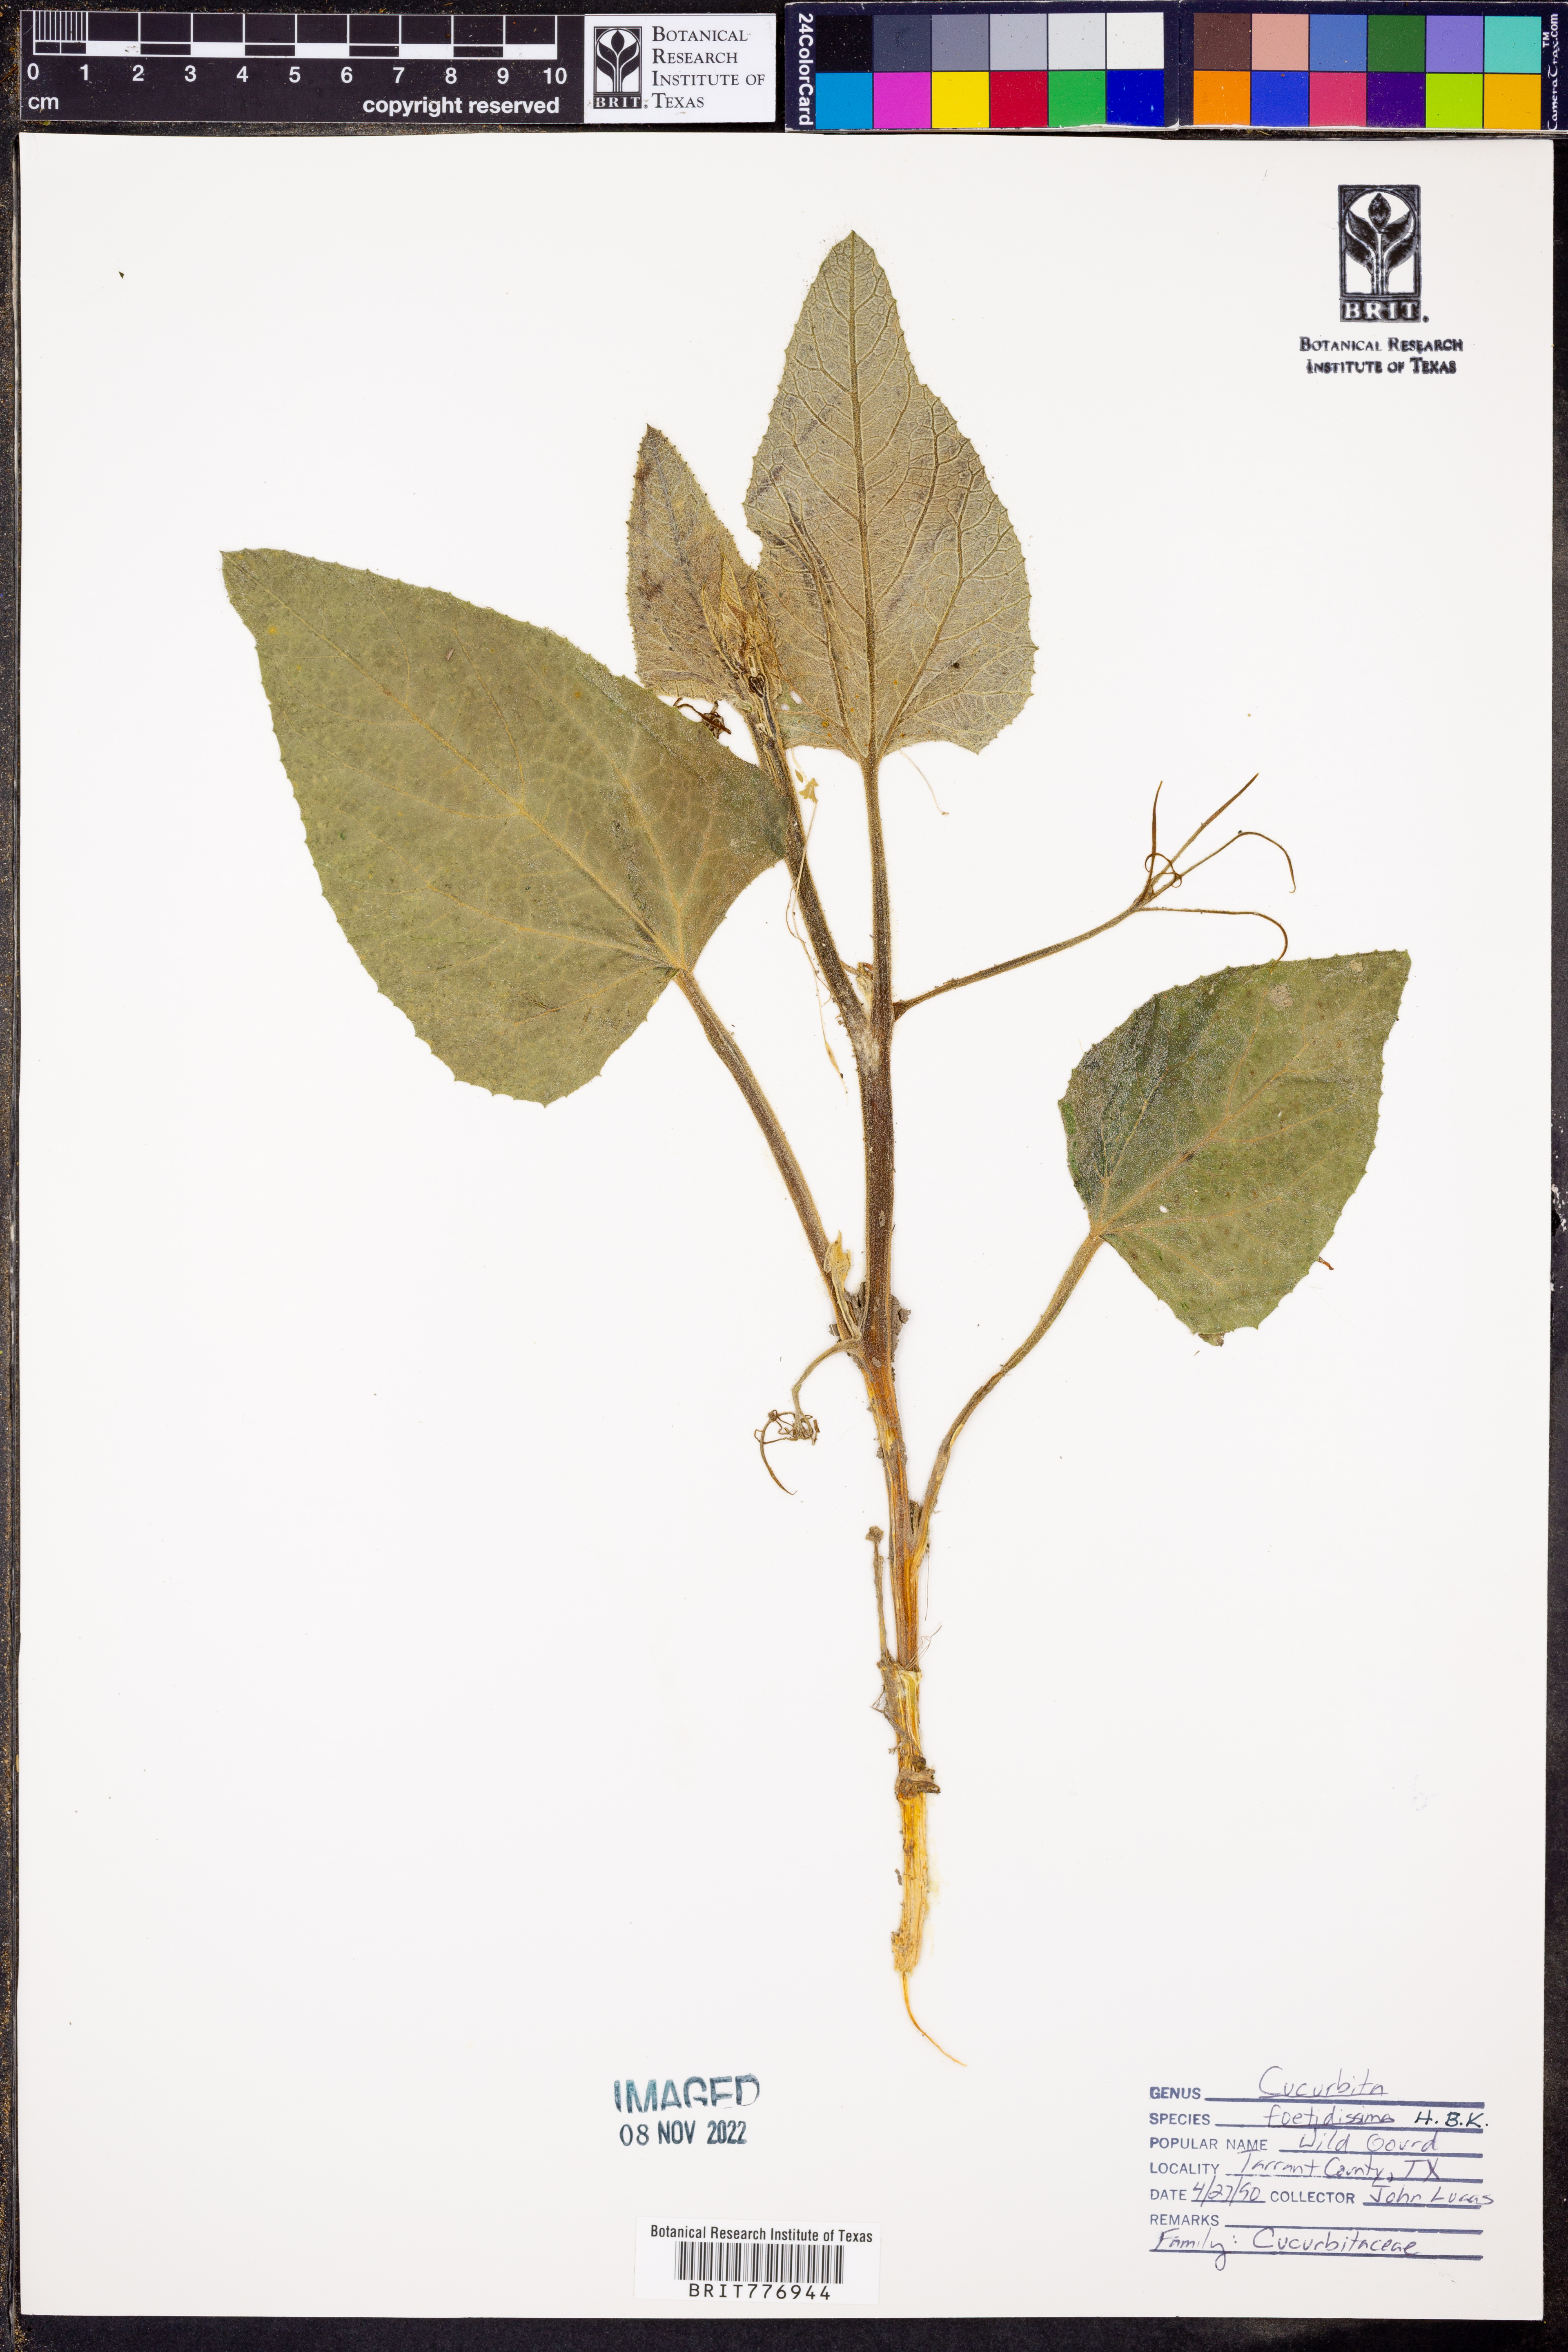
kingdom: Plantae
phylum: Tracheophyta
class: Magnoliopsida
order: Cucurbitales
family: Cucurbitaceae
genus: Cucurbita
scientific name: Cucurbita foetidissima
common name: Buffalo gourd
